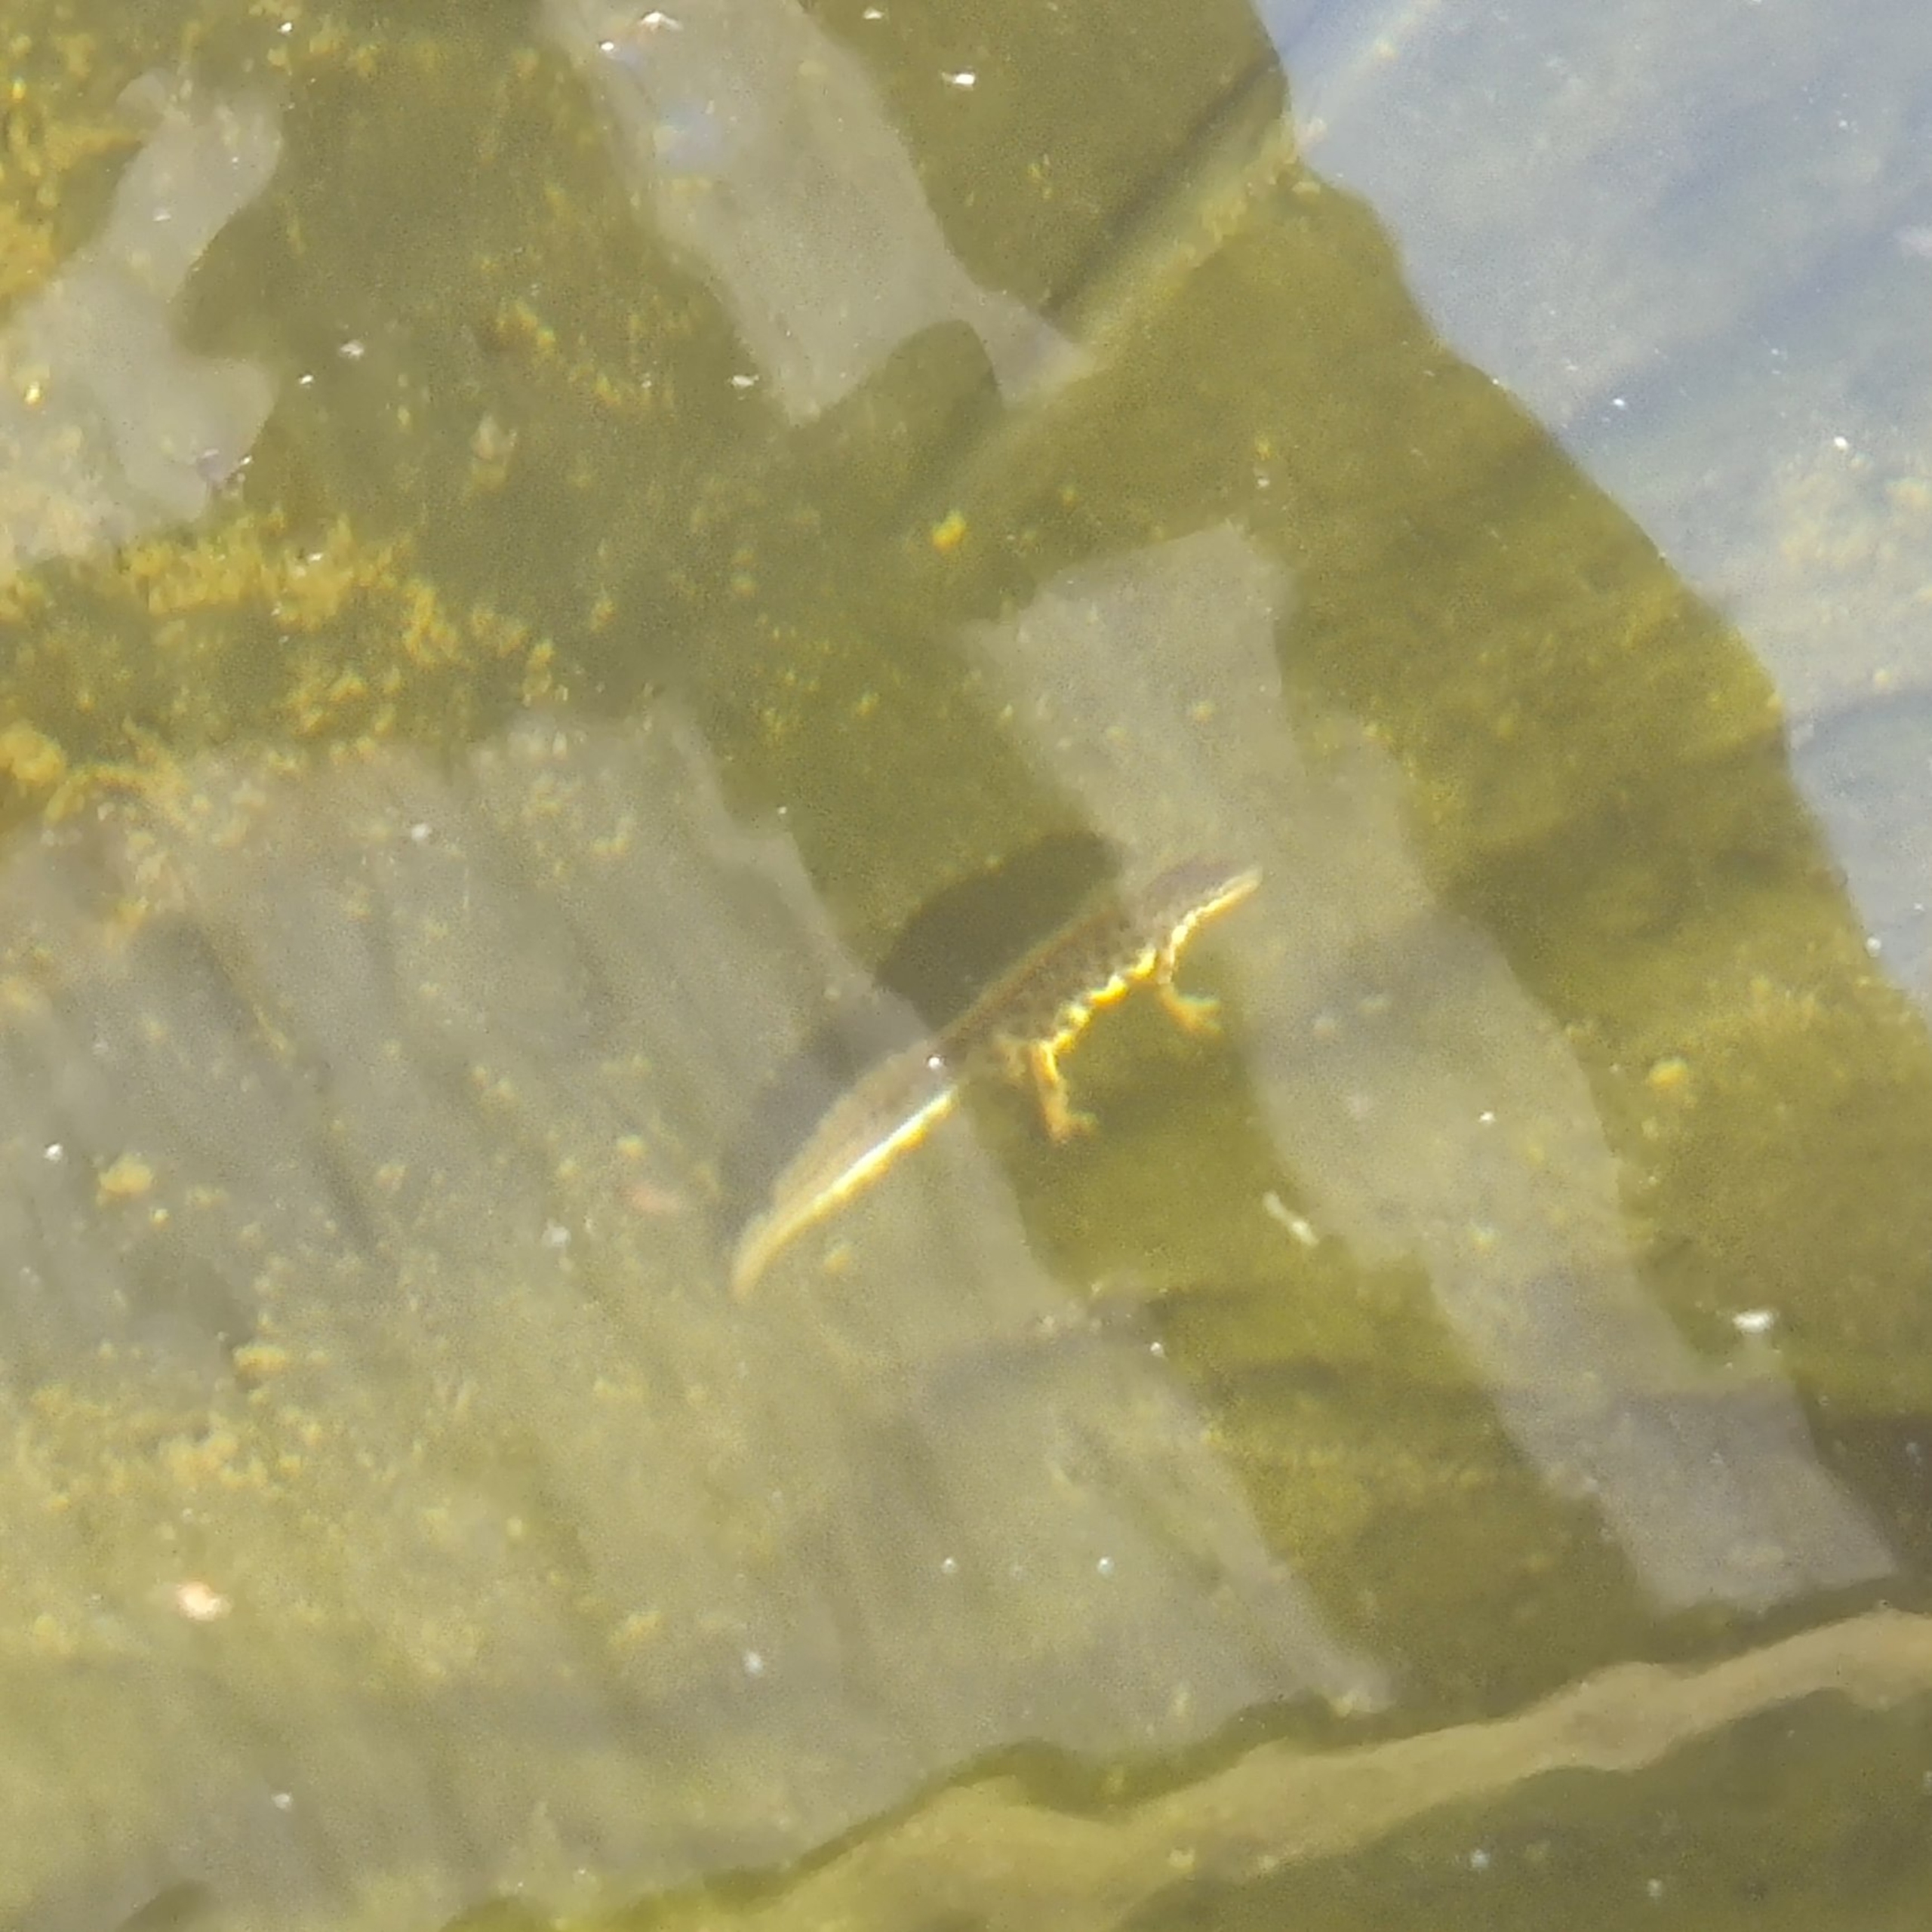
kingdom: Animalia
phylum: Chordata
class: Amphibia
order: Caudata
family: Salamandridae
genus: Lissotriton
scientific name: Lissotriton vulgaris
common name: Lille vandsalamander
